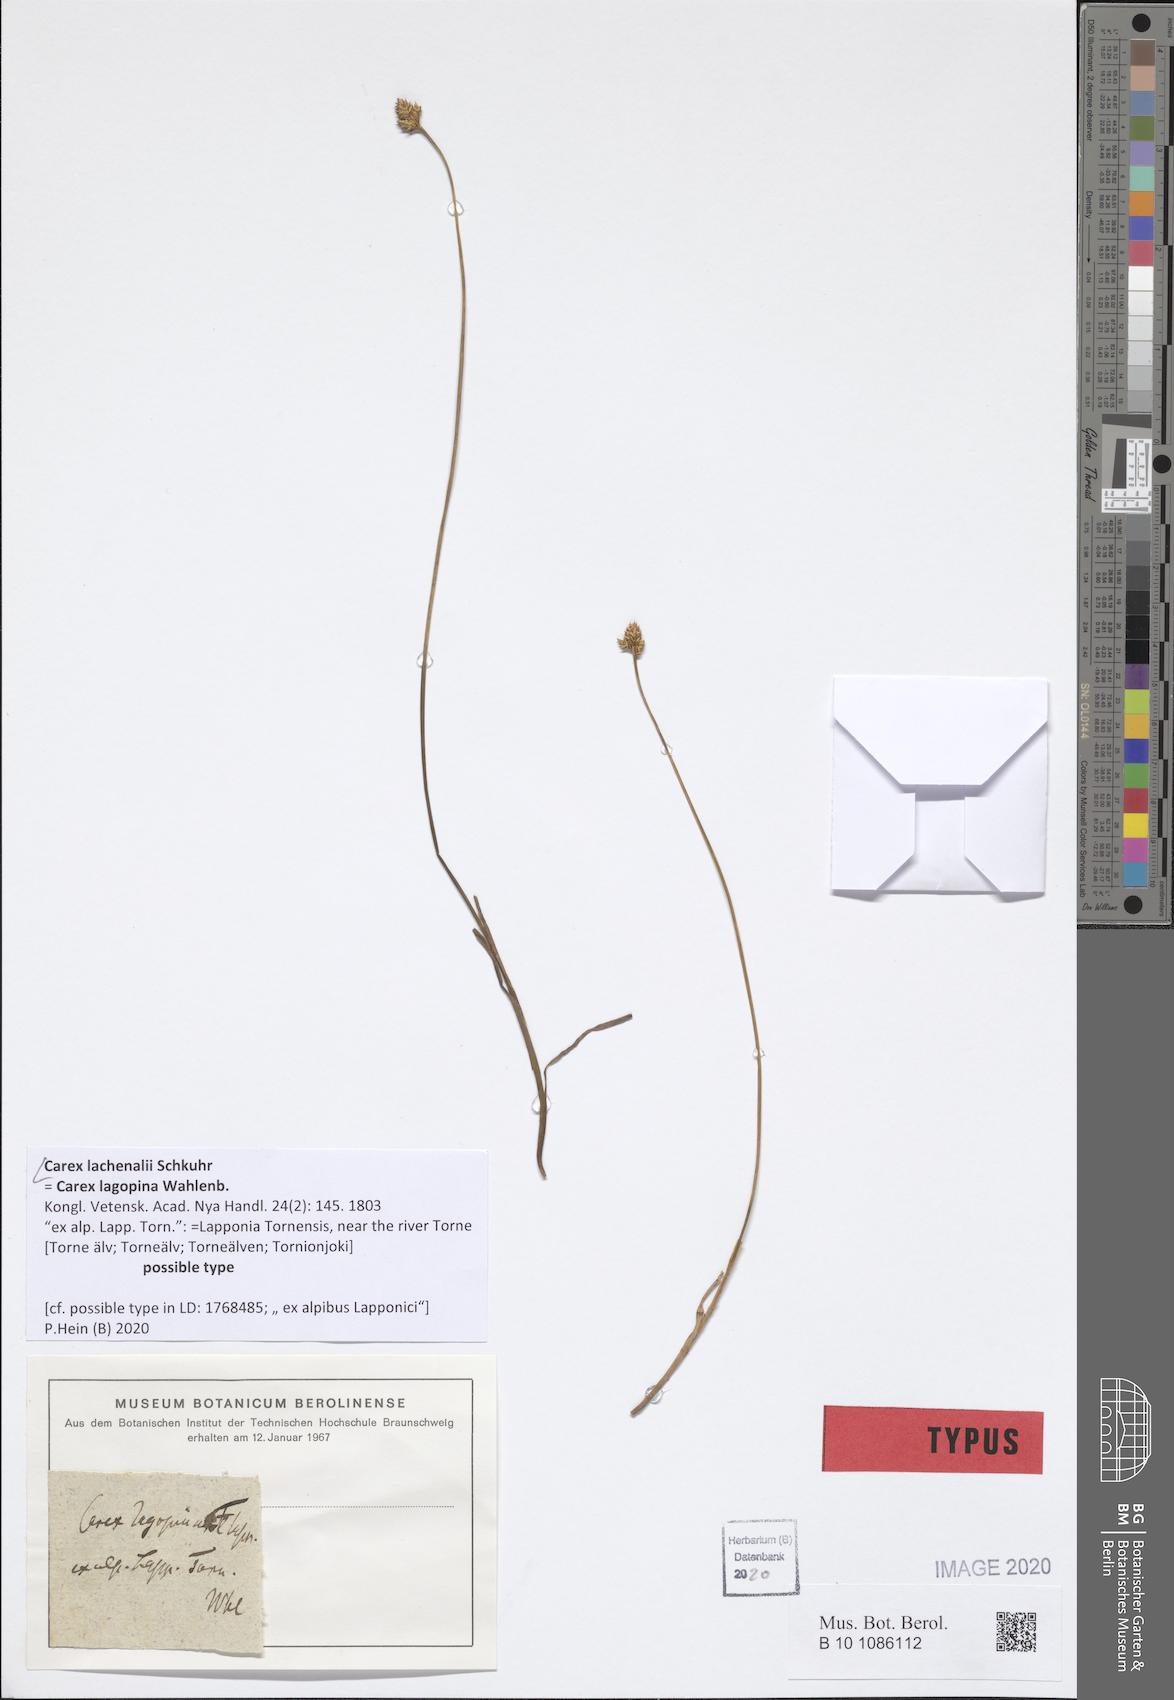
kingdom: Plantae
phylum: Tracheophyta
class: Liliopsida
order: Poales
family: Cyperaceae
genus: Carex
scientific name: Carex lachenalii
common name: Hare's-foot sedge
